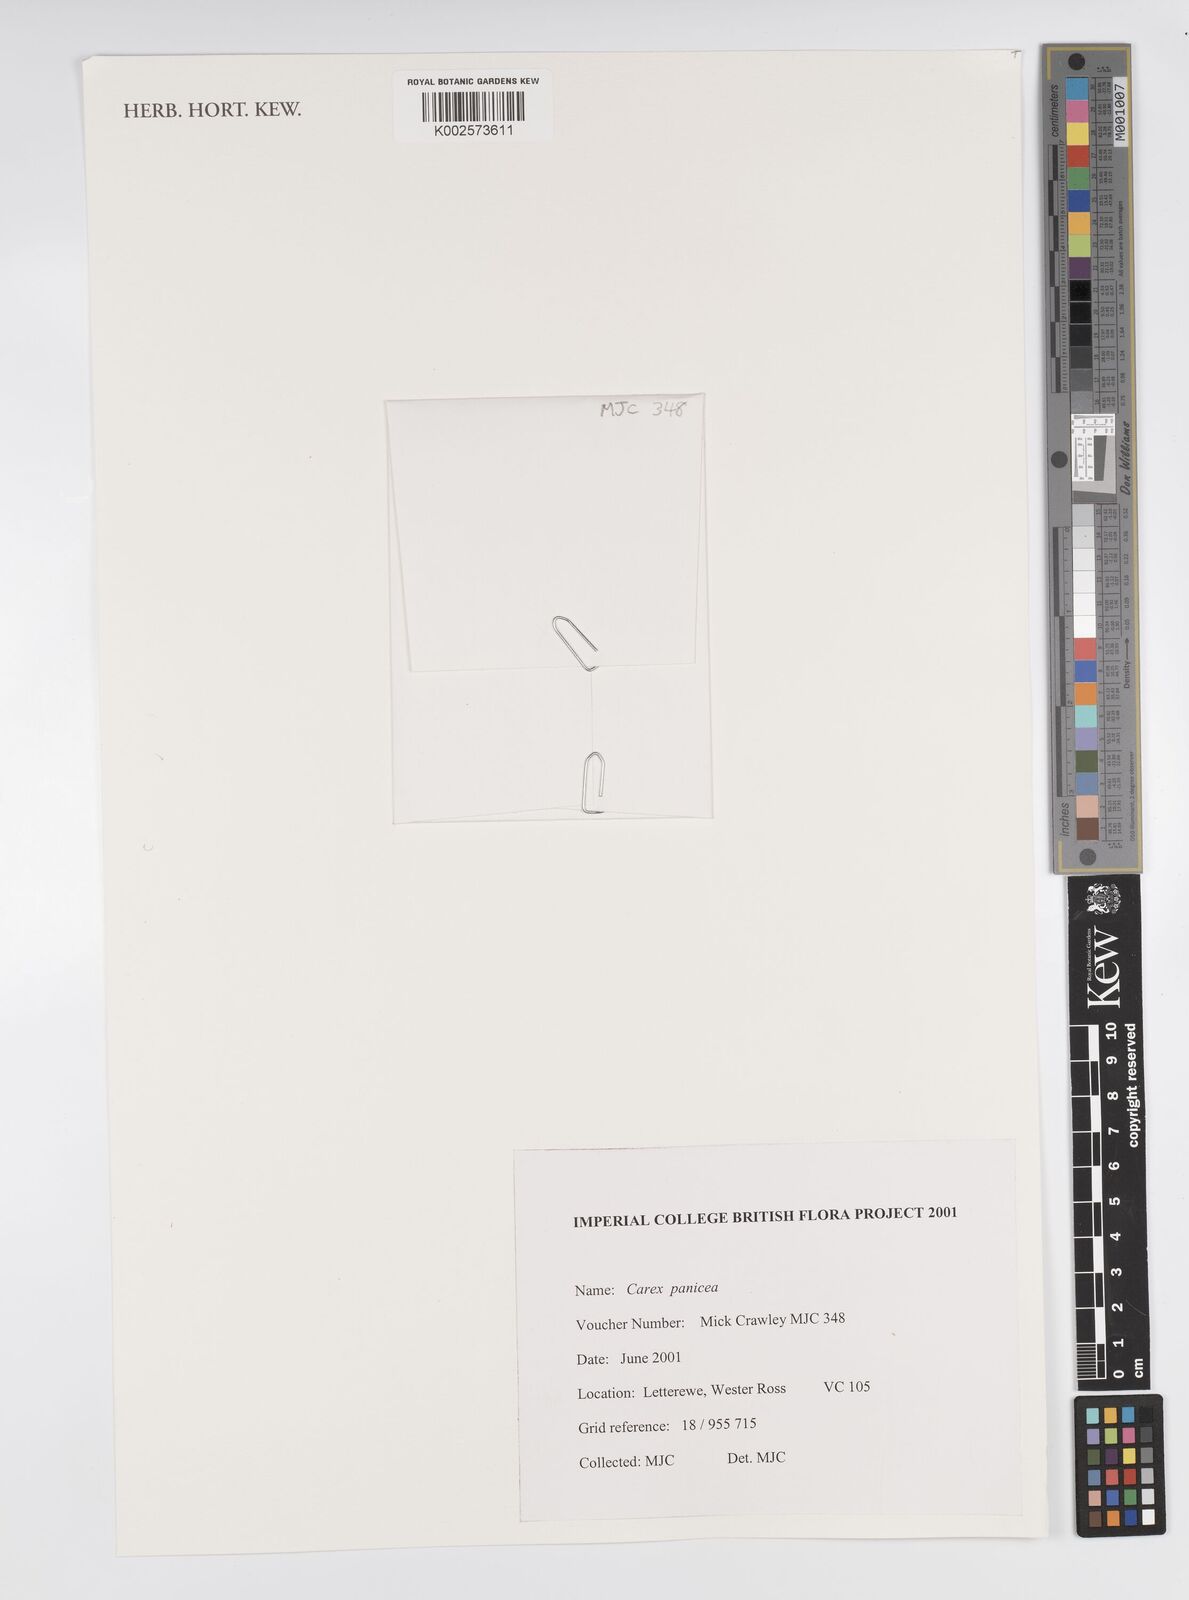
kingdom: Plantae
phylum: Tracheophyta
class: Liliopsida
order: Poales
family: Cyperaceae
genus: Carex
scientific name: Carex panicea
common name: Carnation sedge
